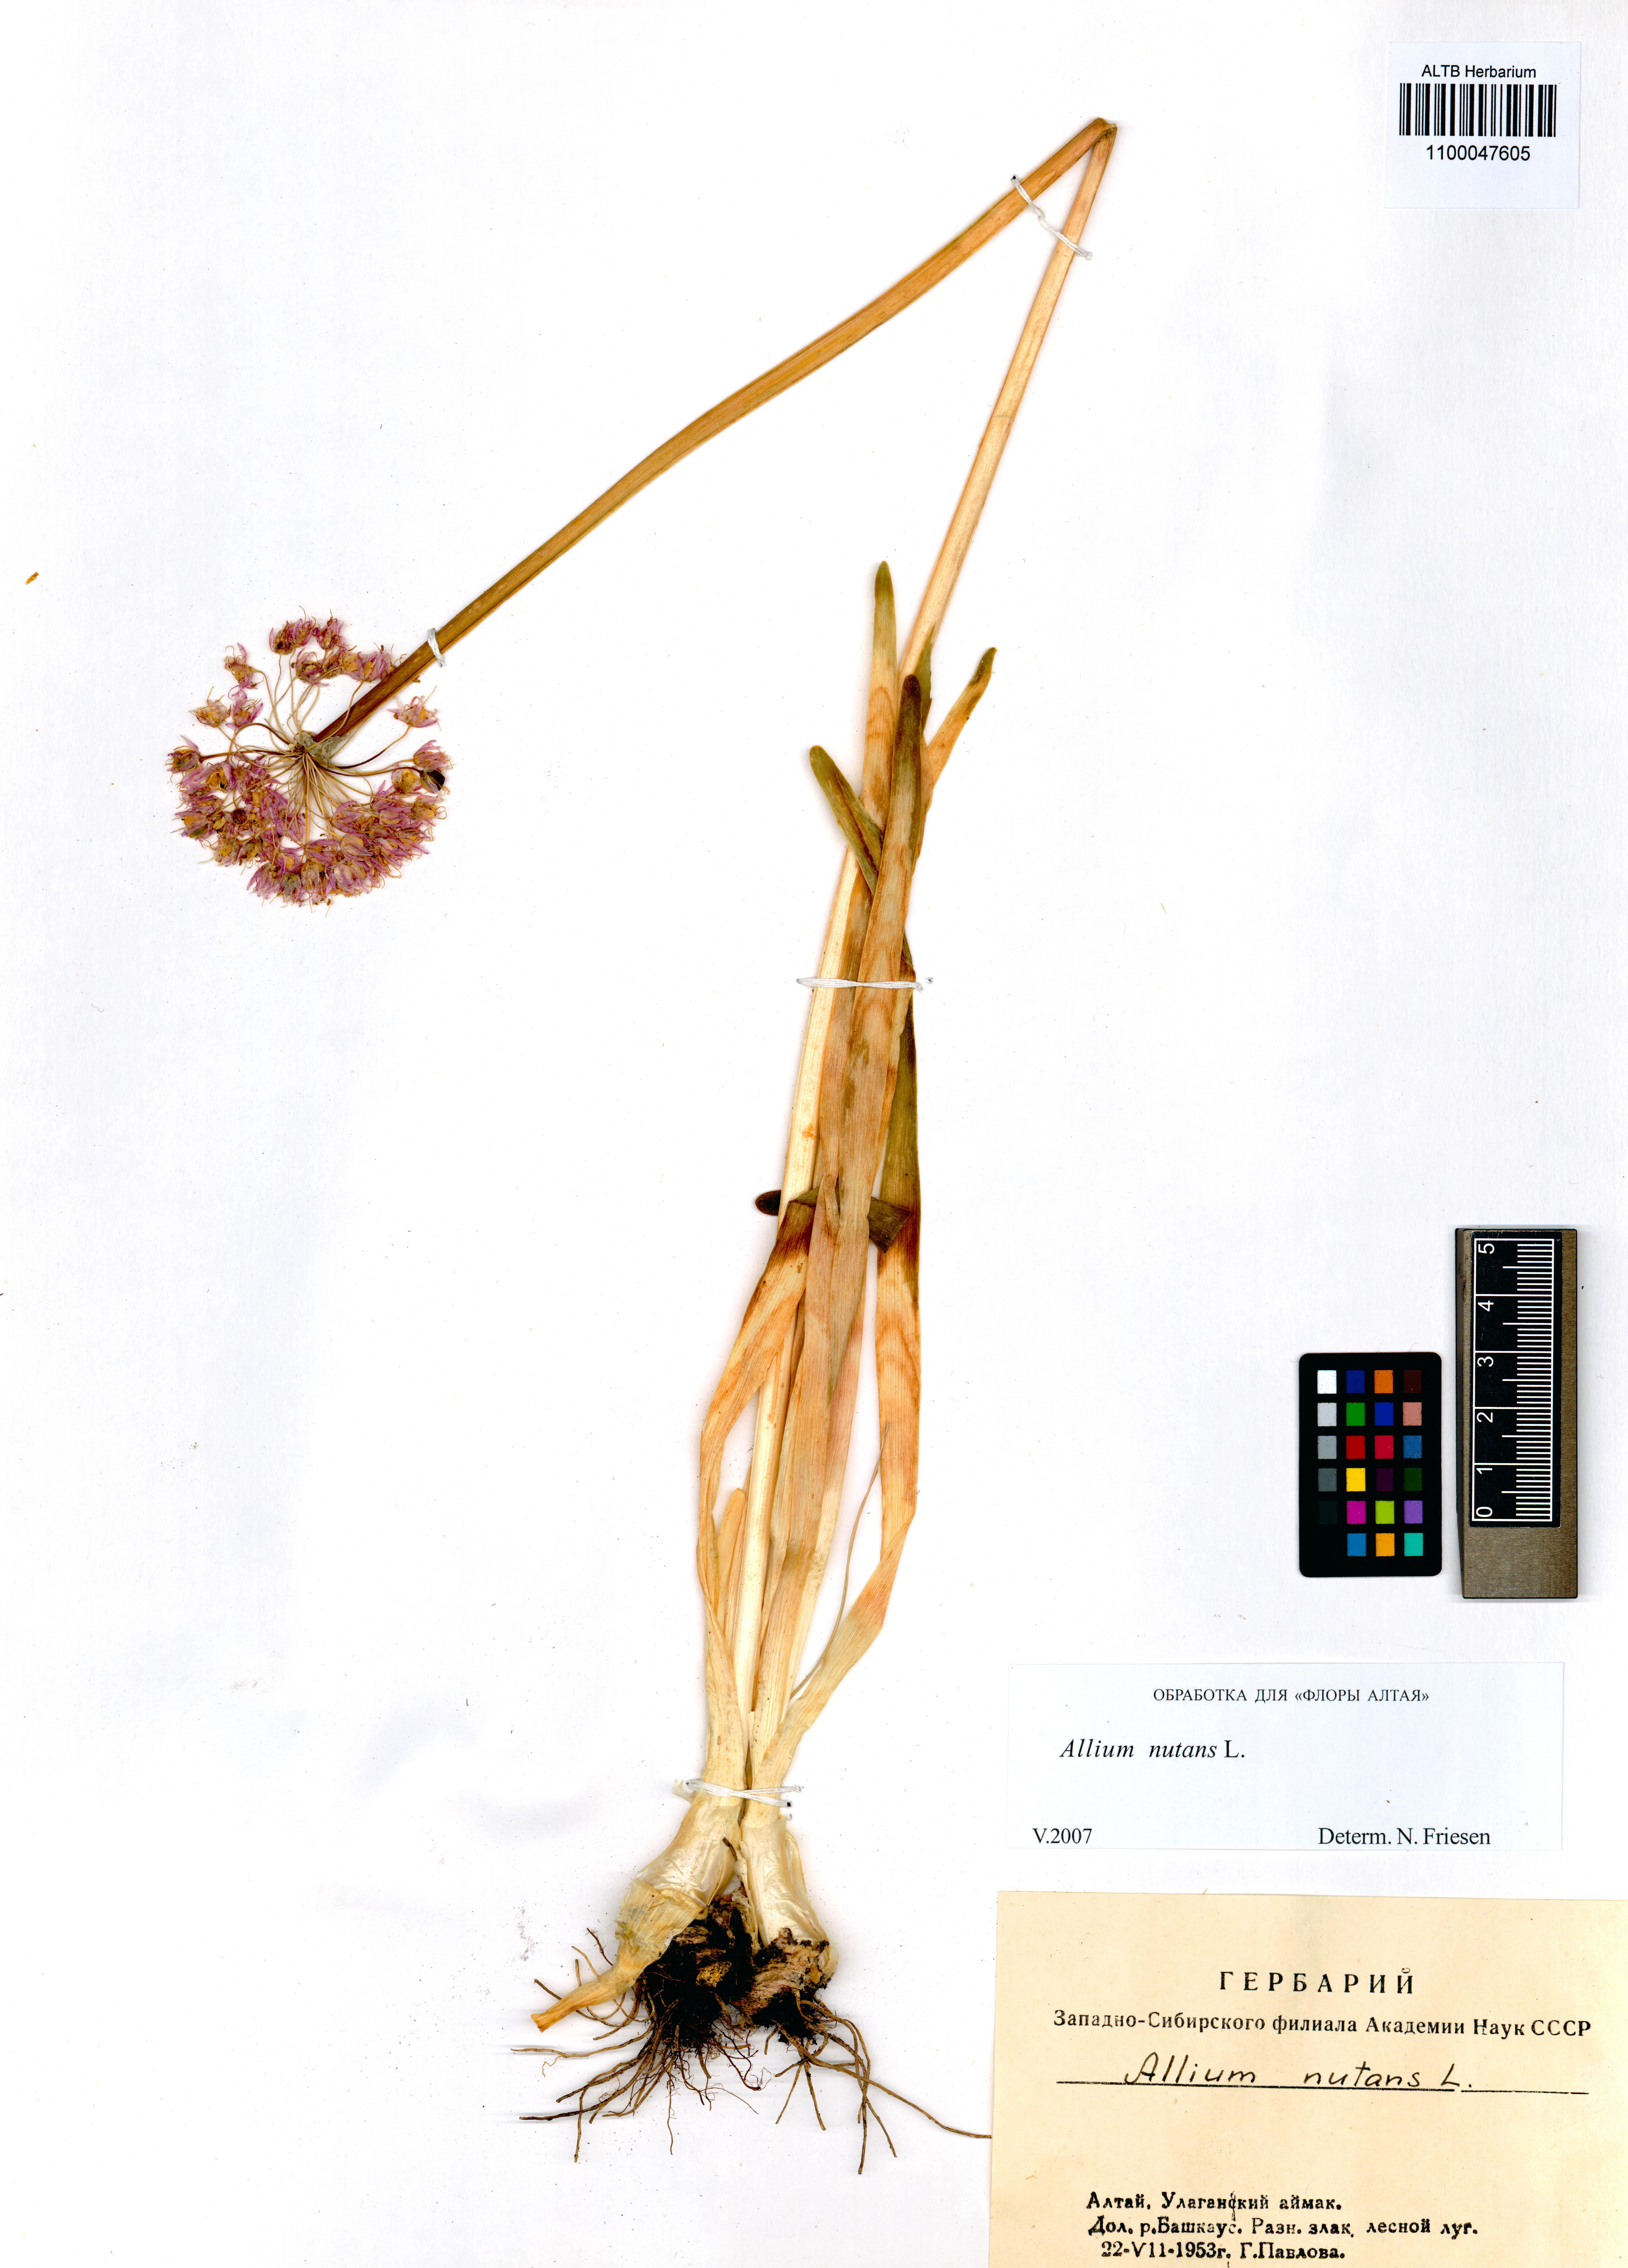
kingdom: Plantae
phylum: Tracheophyta
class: Liliopsida
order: Asparagales
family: Amaryllidaceae
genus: Allium
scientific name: Allium nutans
